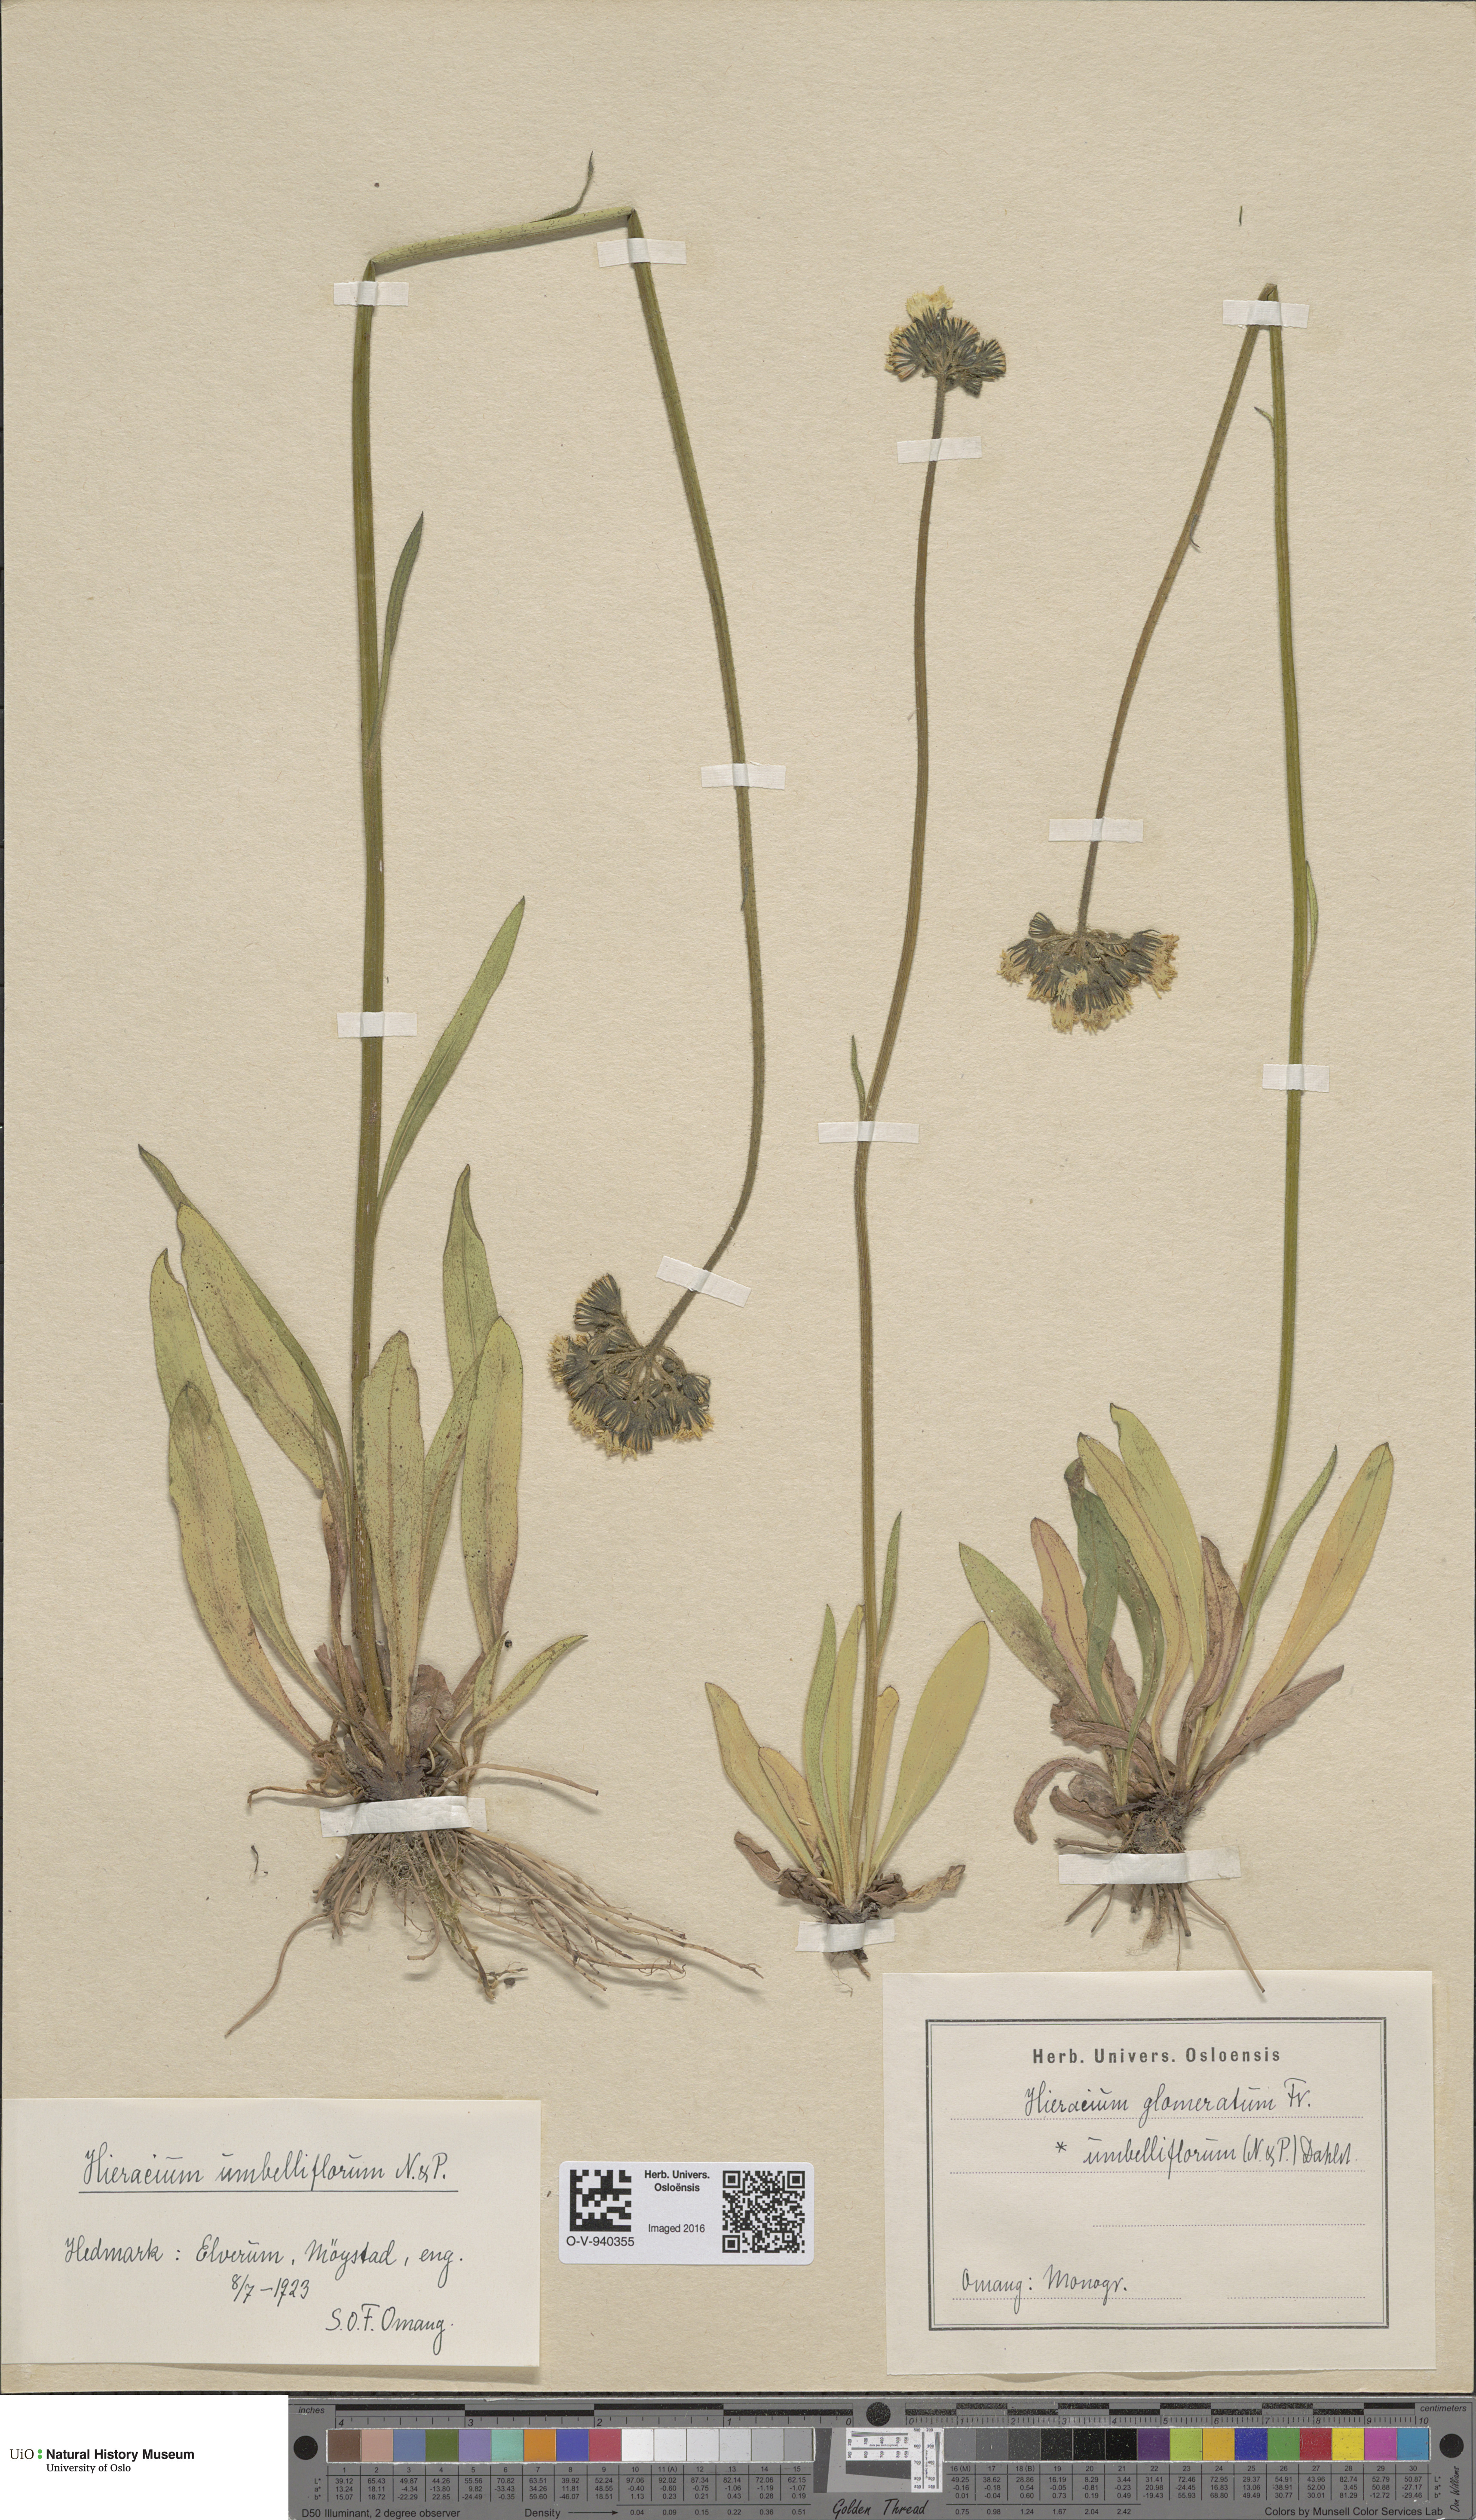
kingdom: Plantae
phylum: Tracheophyta
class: Magnoliopsida
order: Asterales
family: Asteraceae
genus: Pilosella
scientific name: Pilosella glomerata
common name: Queen devil hawkweed
